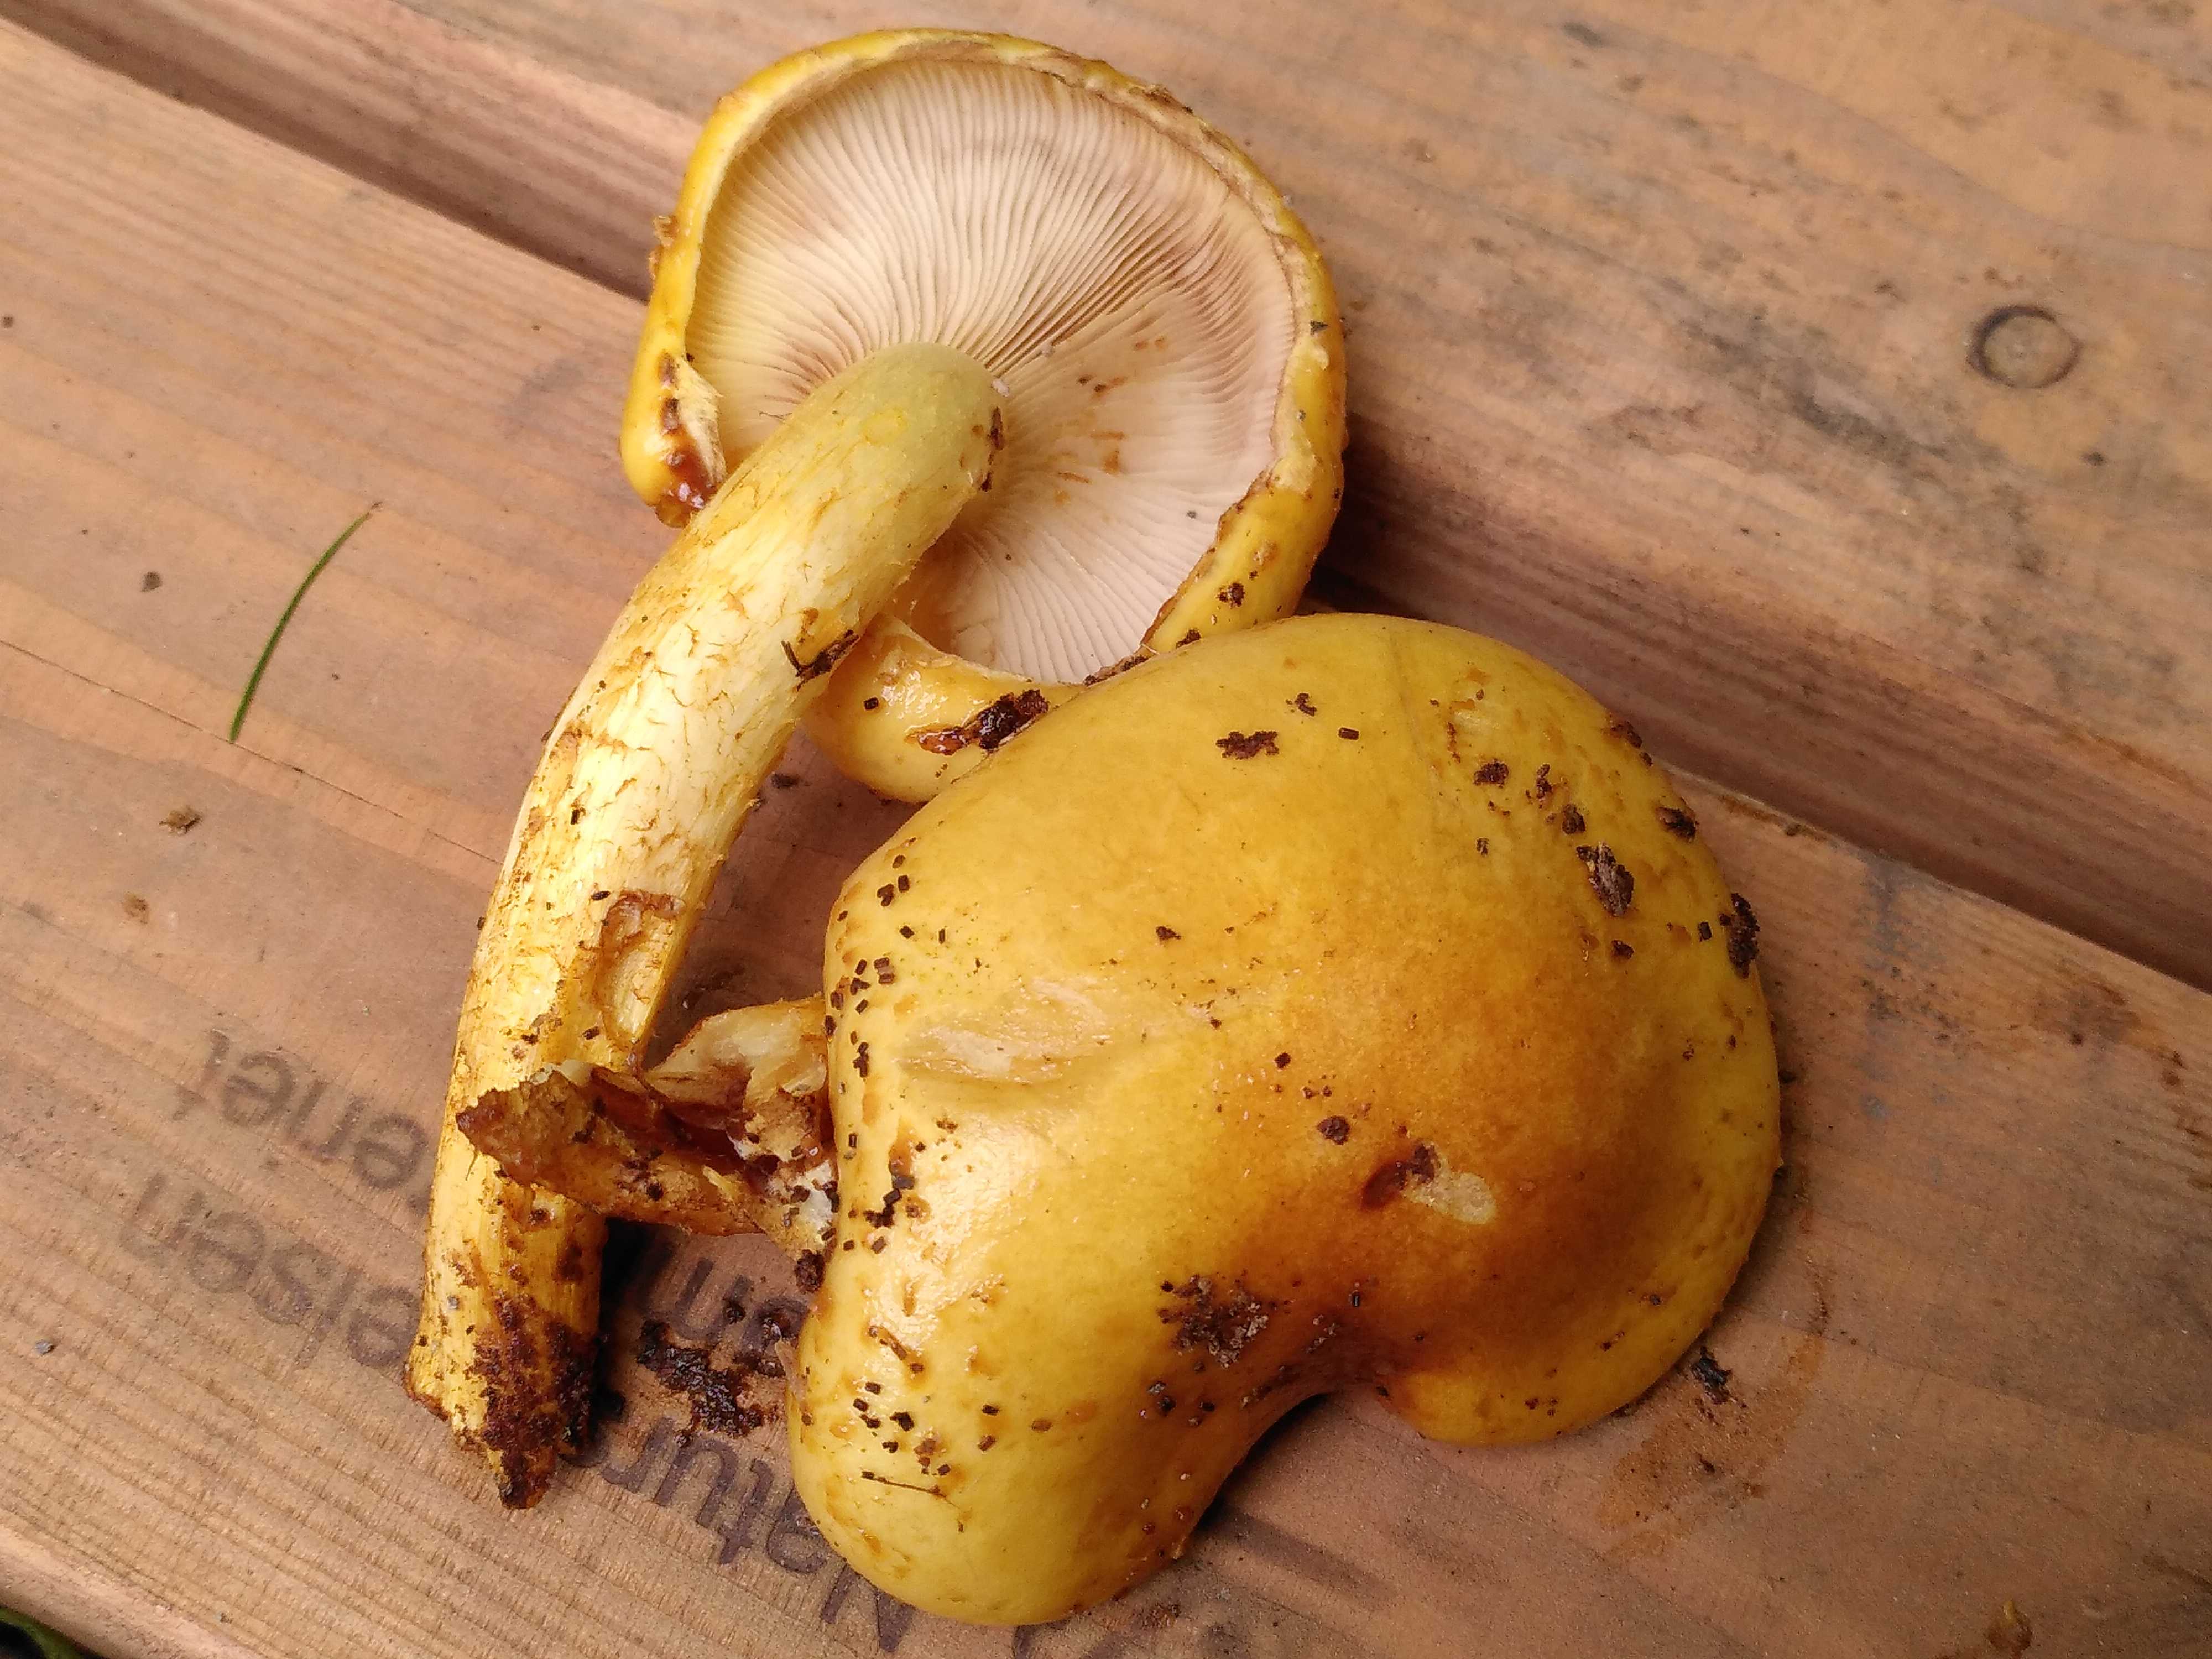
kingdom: Fungi
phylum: Basidiomycota
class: Agaricomycetes
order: Agaricales
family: Strophariaceae
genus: Pholiota
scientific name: Pholiota adiposa
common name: højtsiddende skælhat
